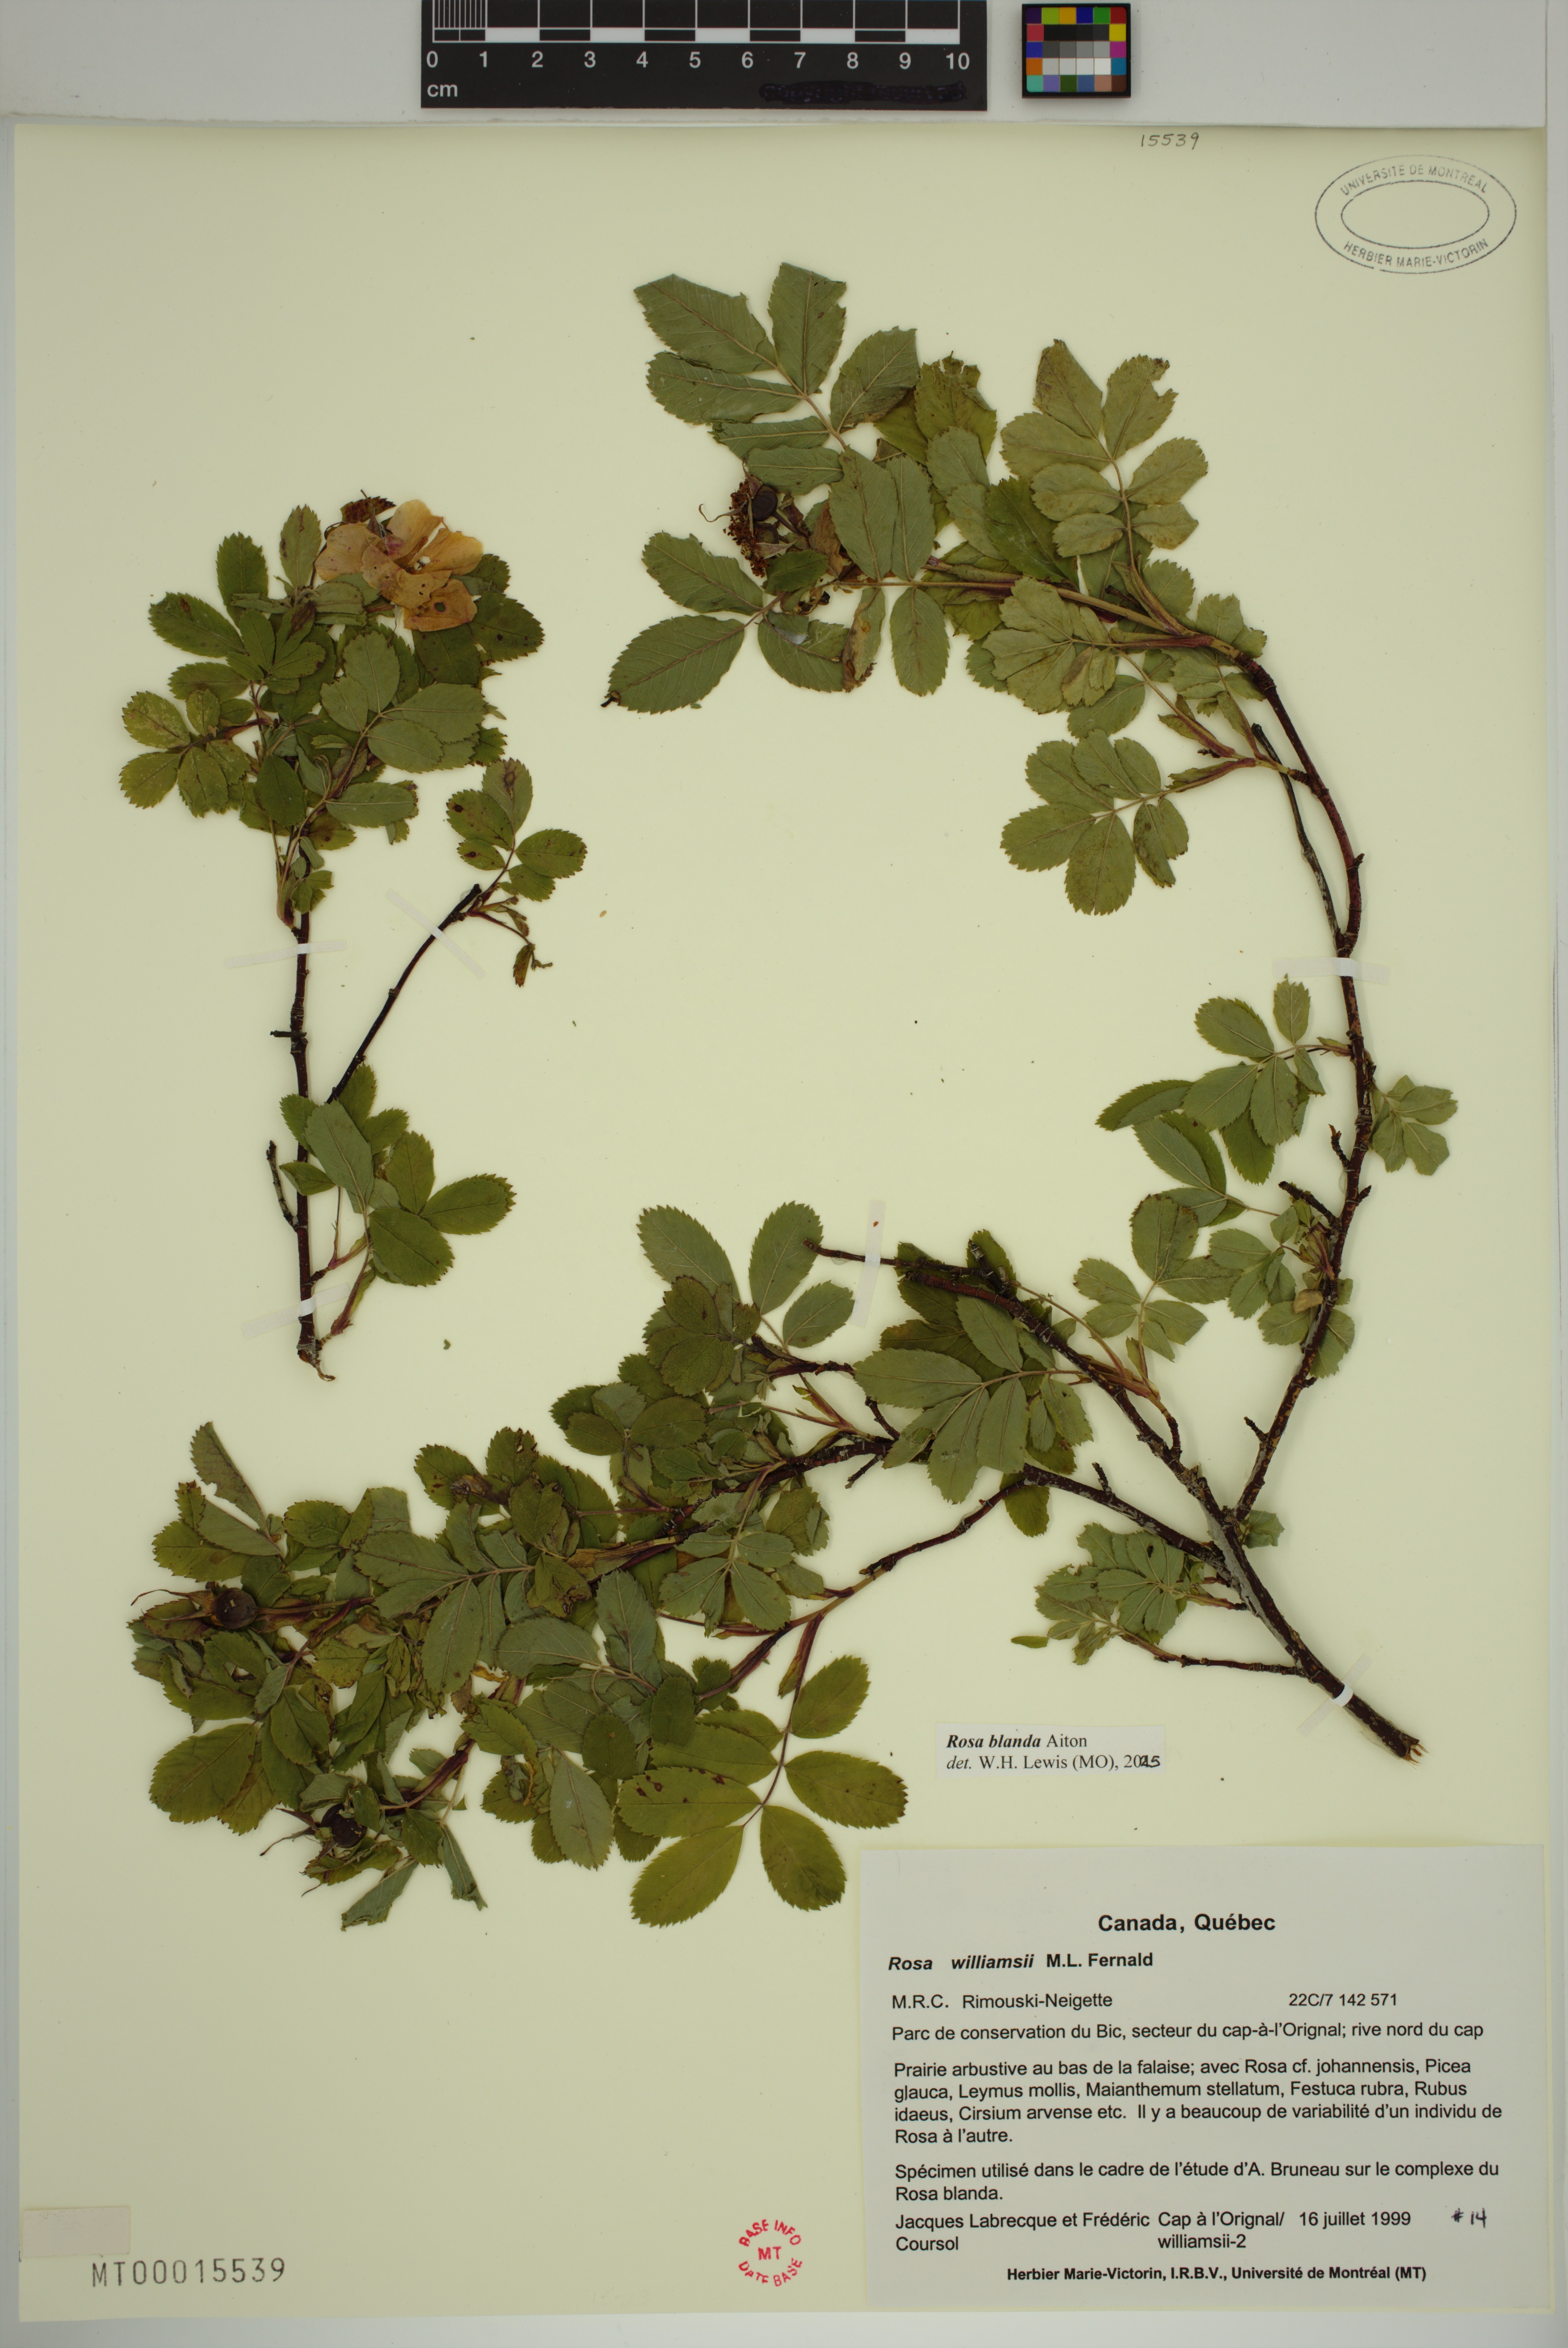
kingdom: Plantae
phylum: Tracheophyta
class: Magnoliopsida
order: Rosales
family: Rosaceae
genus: Rosa
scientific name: Rosa blanda
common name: Smooth rose
